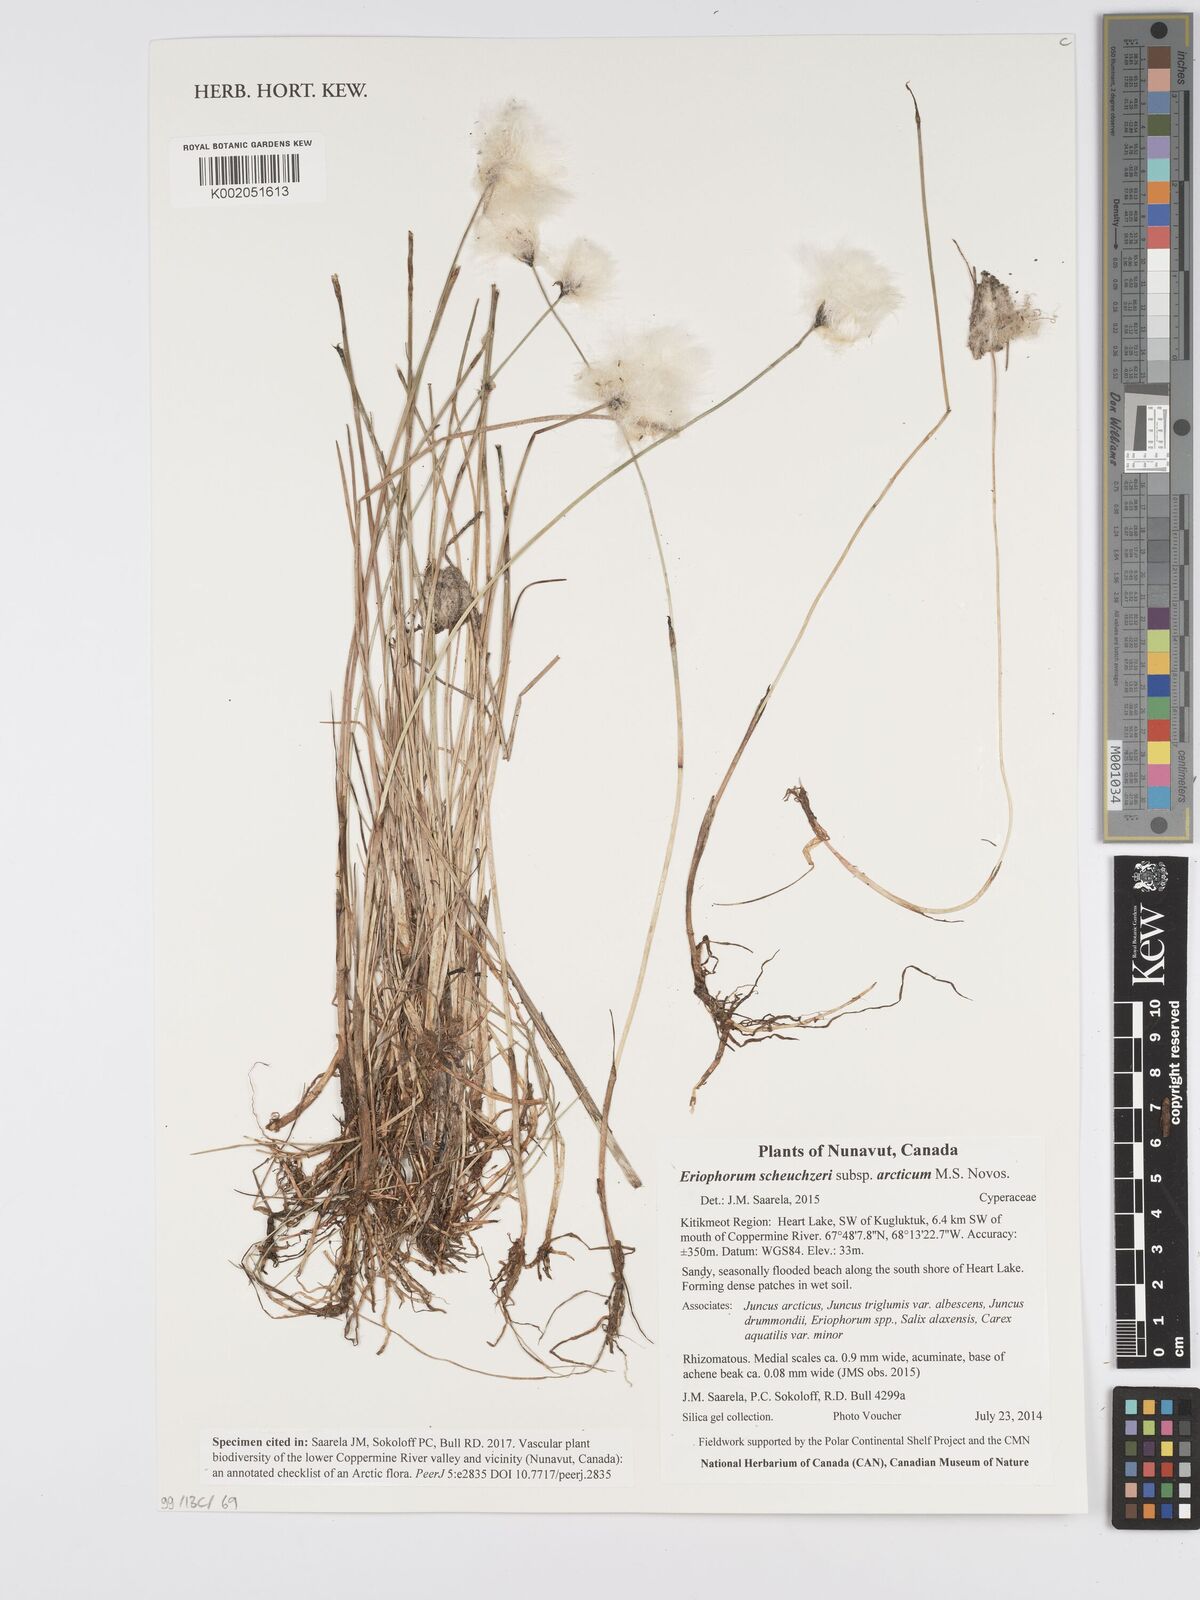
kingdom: Plantae
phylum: Tracheophyta
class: Liliopsida
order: Poales
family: Cyperaceae
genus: Eriophorum
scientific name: Eriophorum scheuchzeri
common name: Scheuchzer's cottongrass
